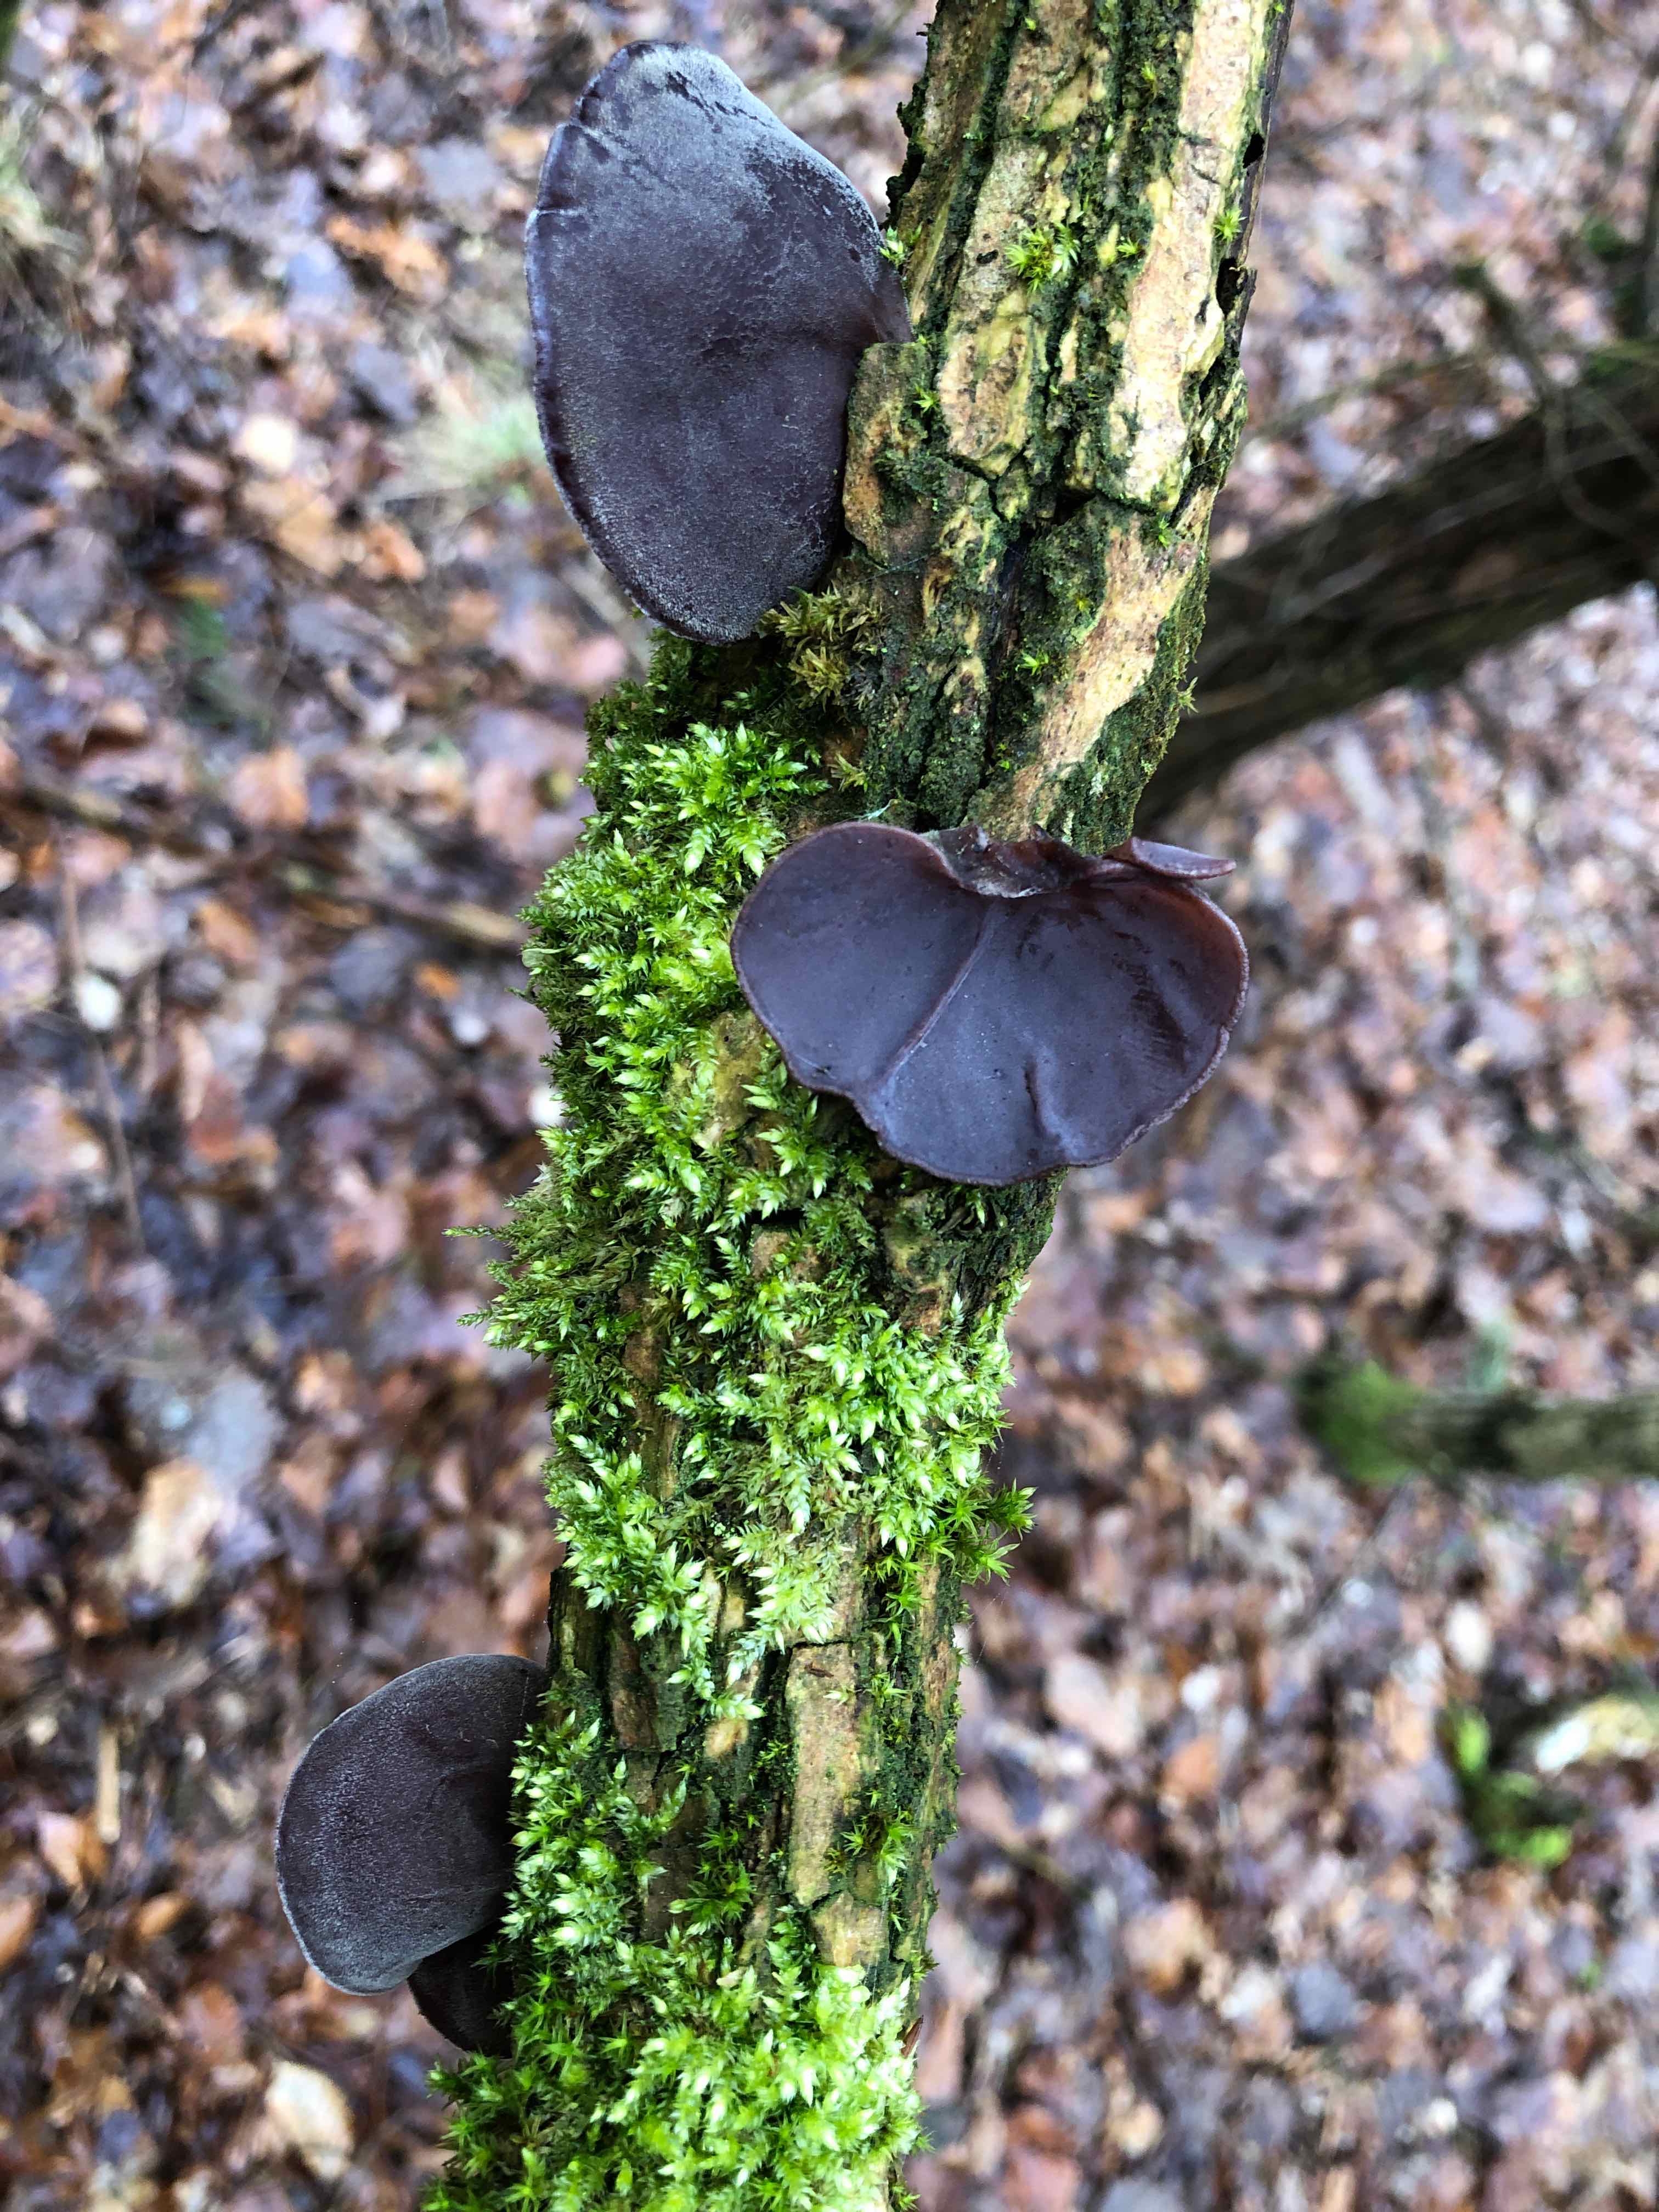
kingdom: Fungi
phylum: Basidiomycota
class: Agaricomycetes
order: Auriculariales
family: Auriculariaceae
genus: Auricularia
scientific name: Auricularia auricula-judae
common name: almindelig judasøre
